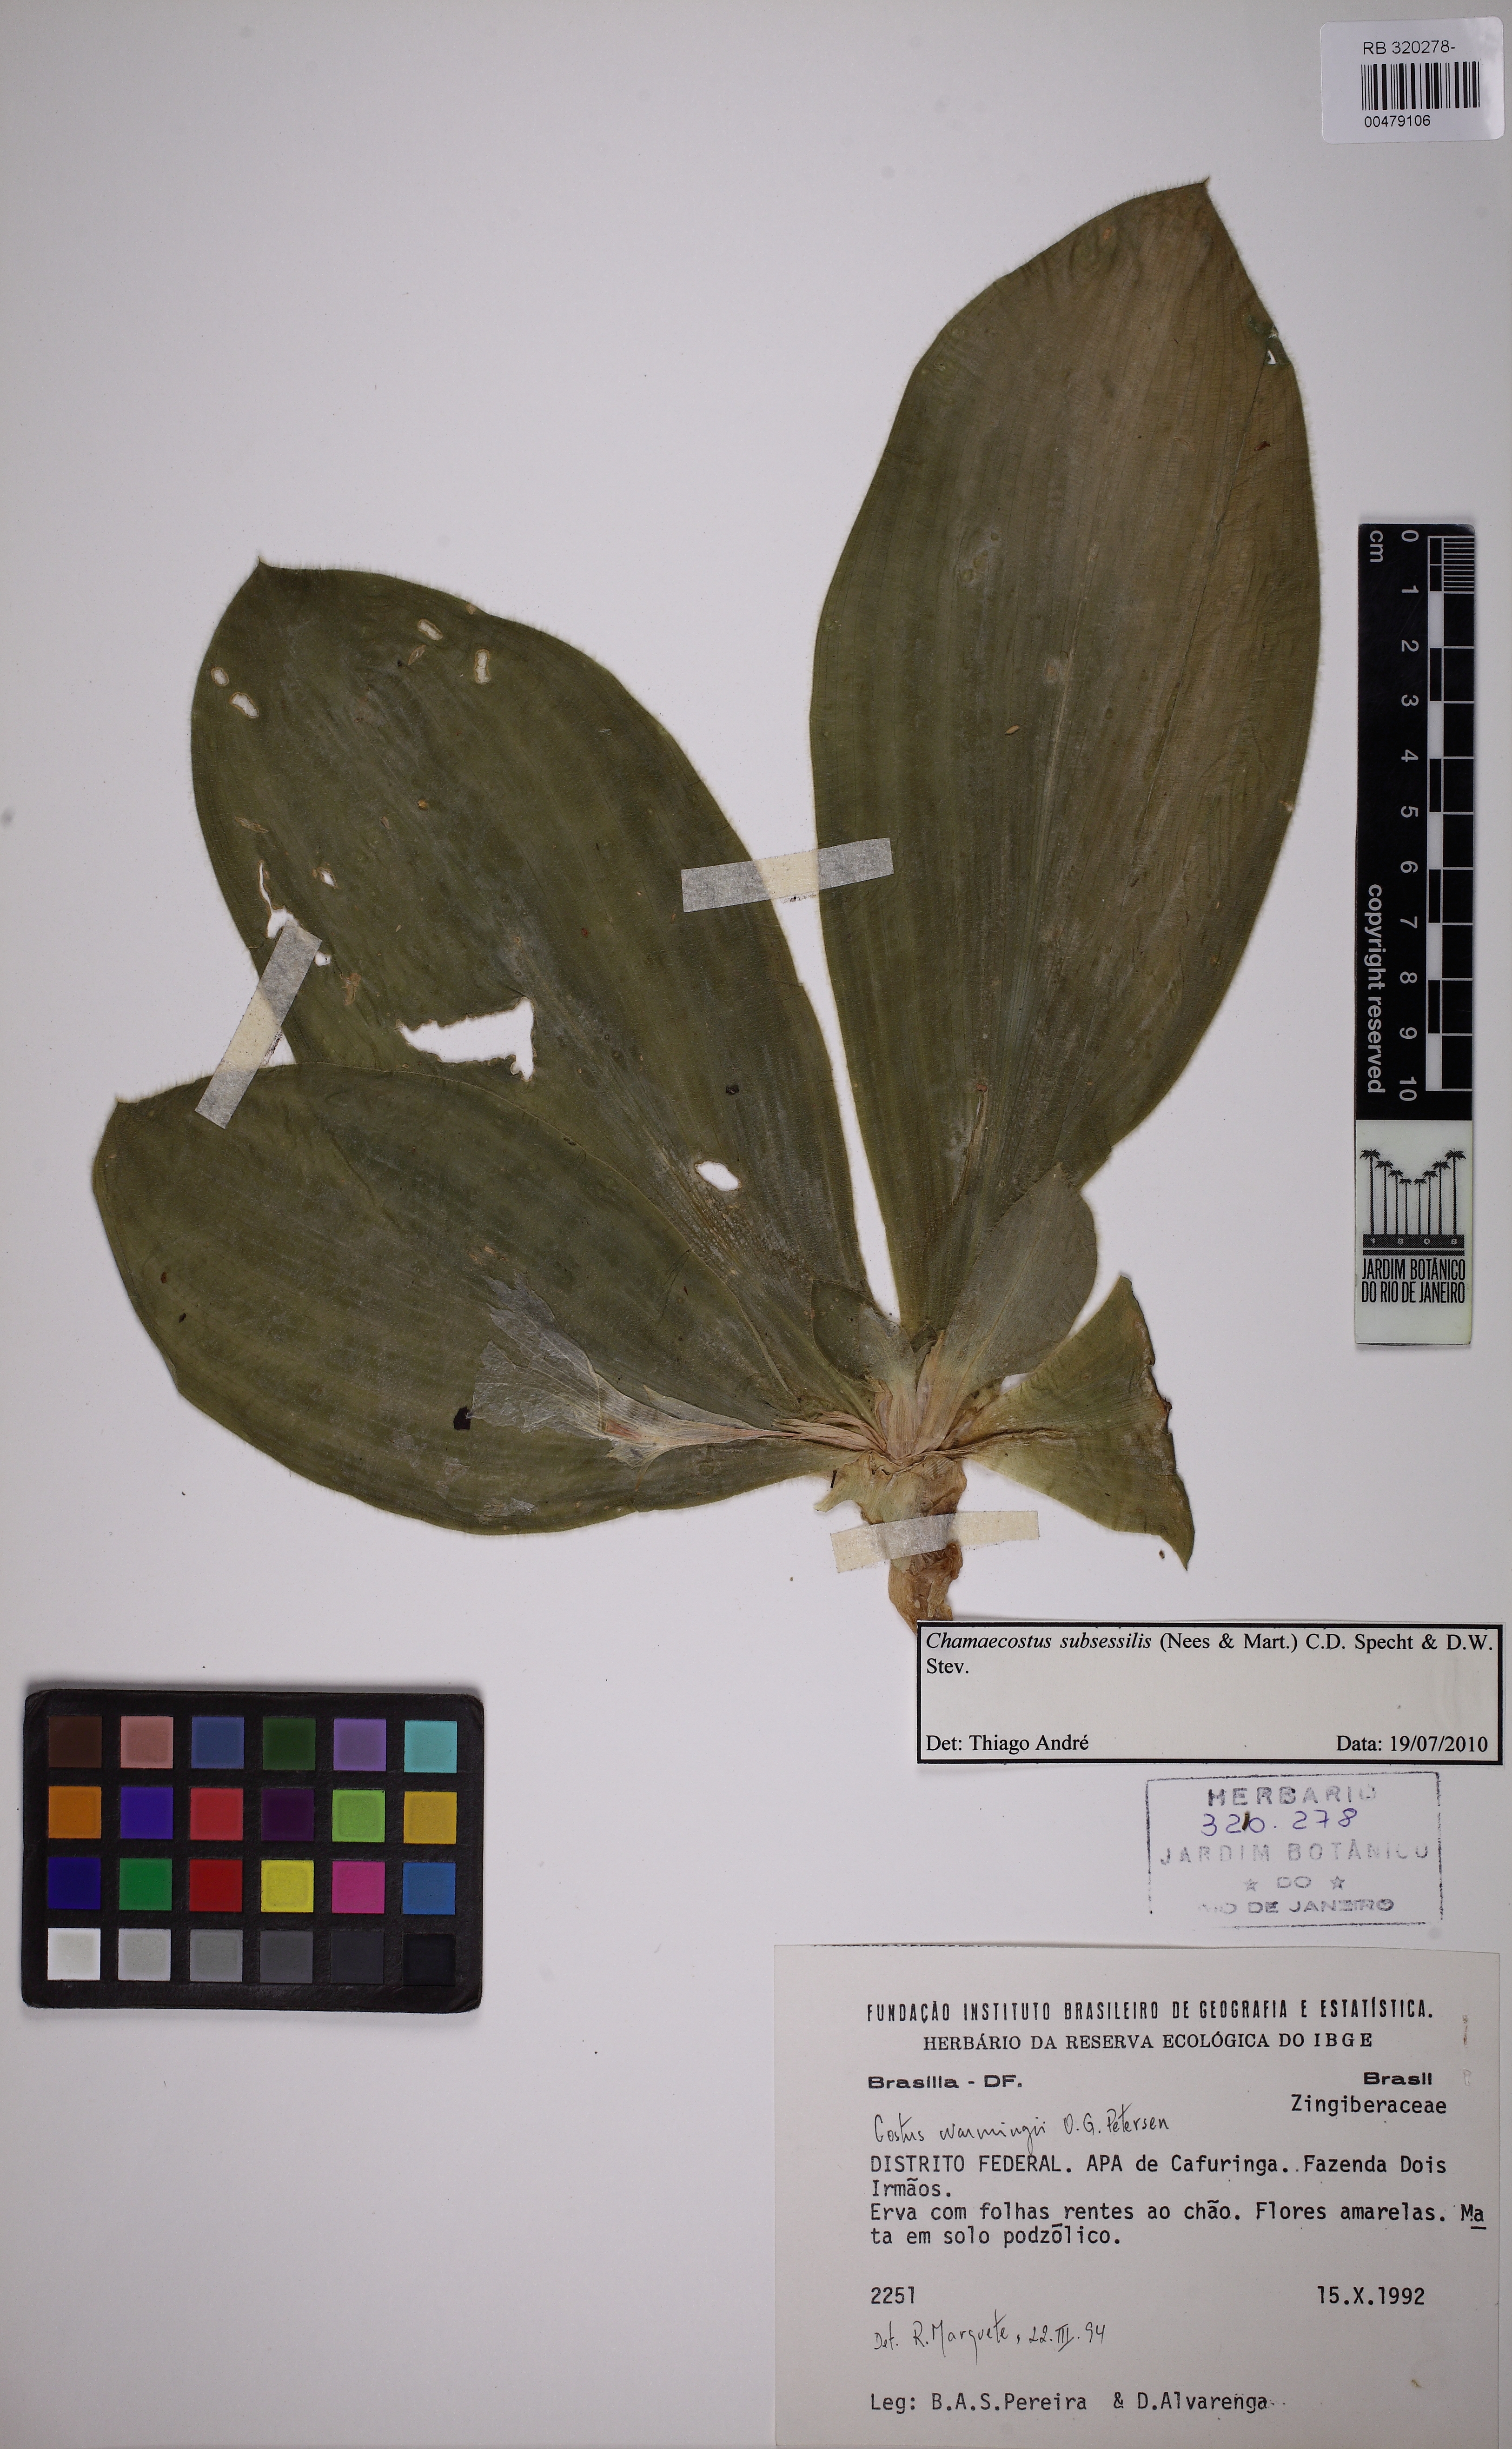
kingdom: Plantae
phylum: Tracheophyta
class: Liliopsida
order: Zingiberales
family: Costaceae
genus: Chamaecostus
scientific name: Chamaecostus subsessilis
